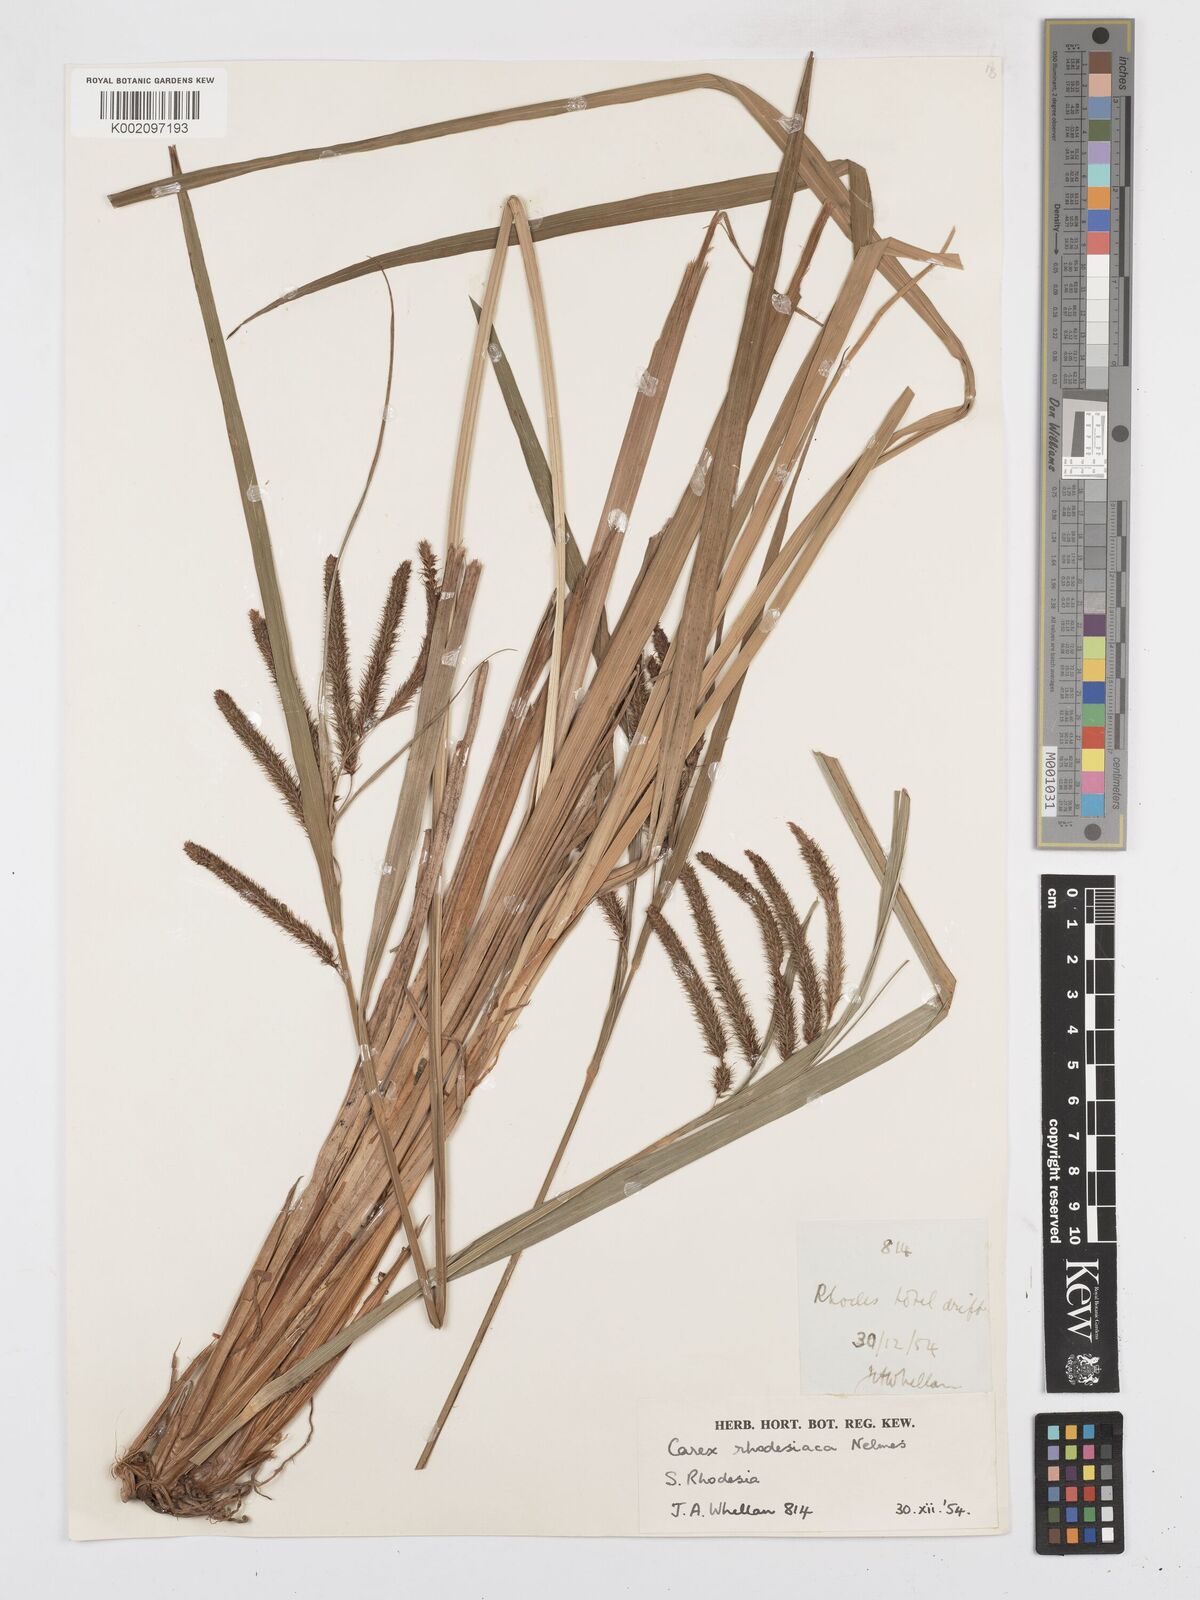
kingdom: Plantae
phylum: Tracheophyta
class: Liliopsida
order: Poales
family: Cyperaceae
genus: Carex
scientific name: Carex rhodesiaca
